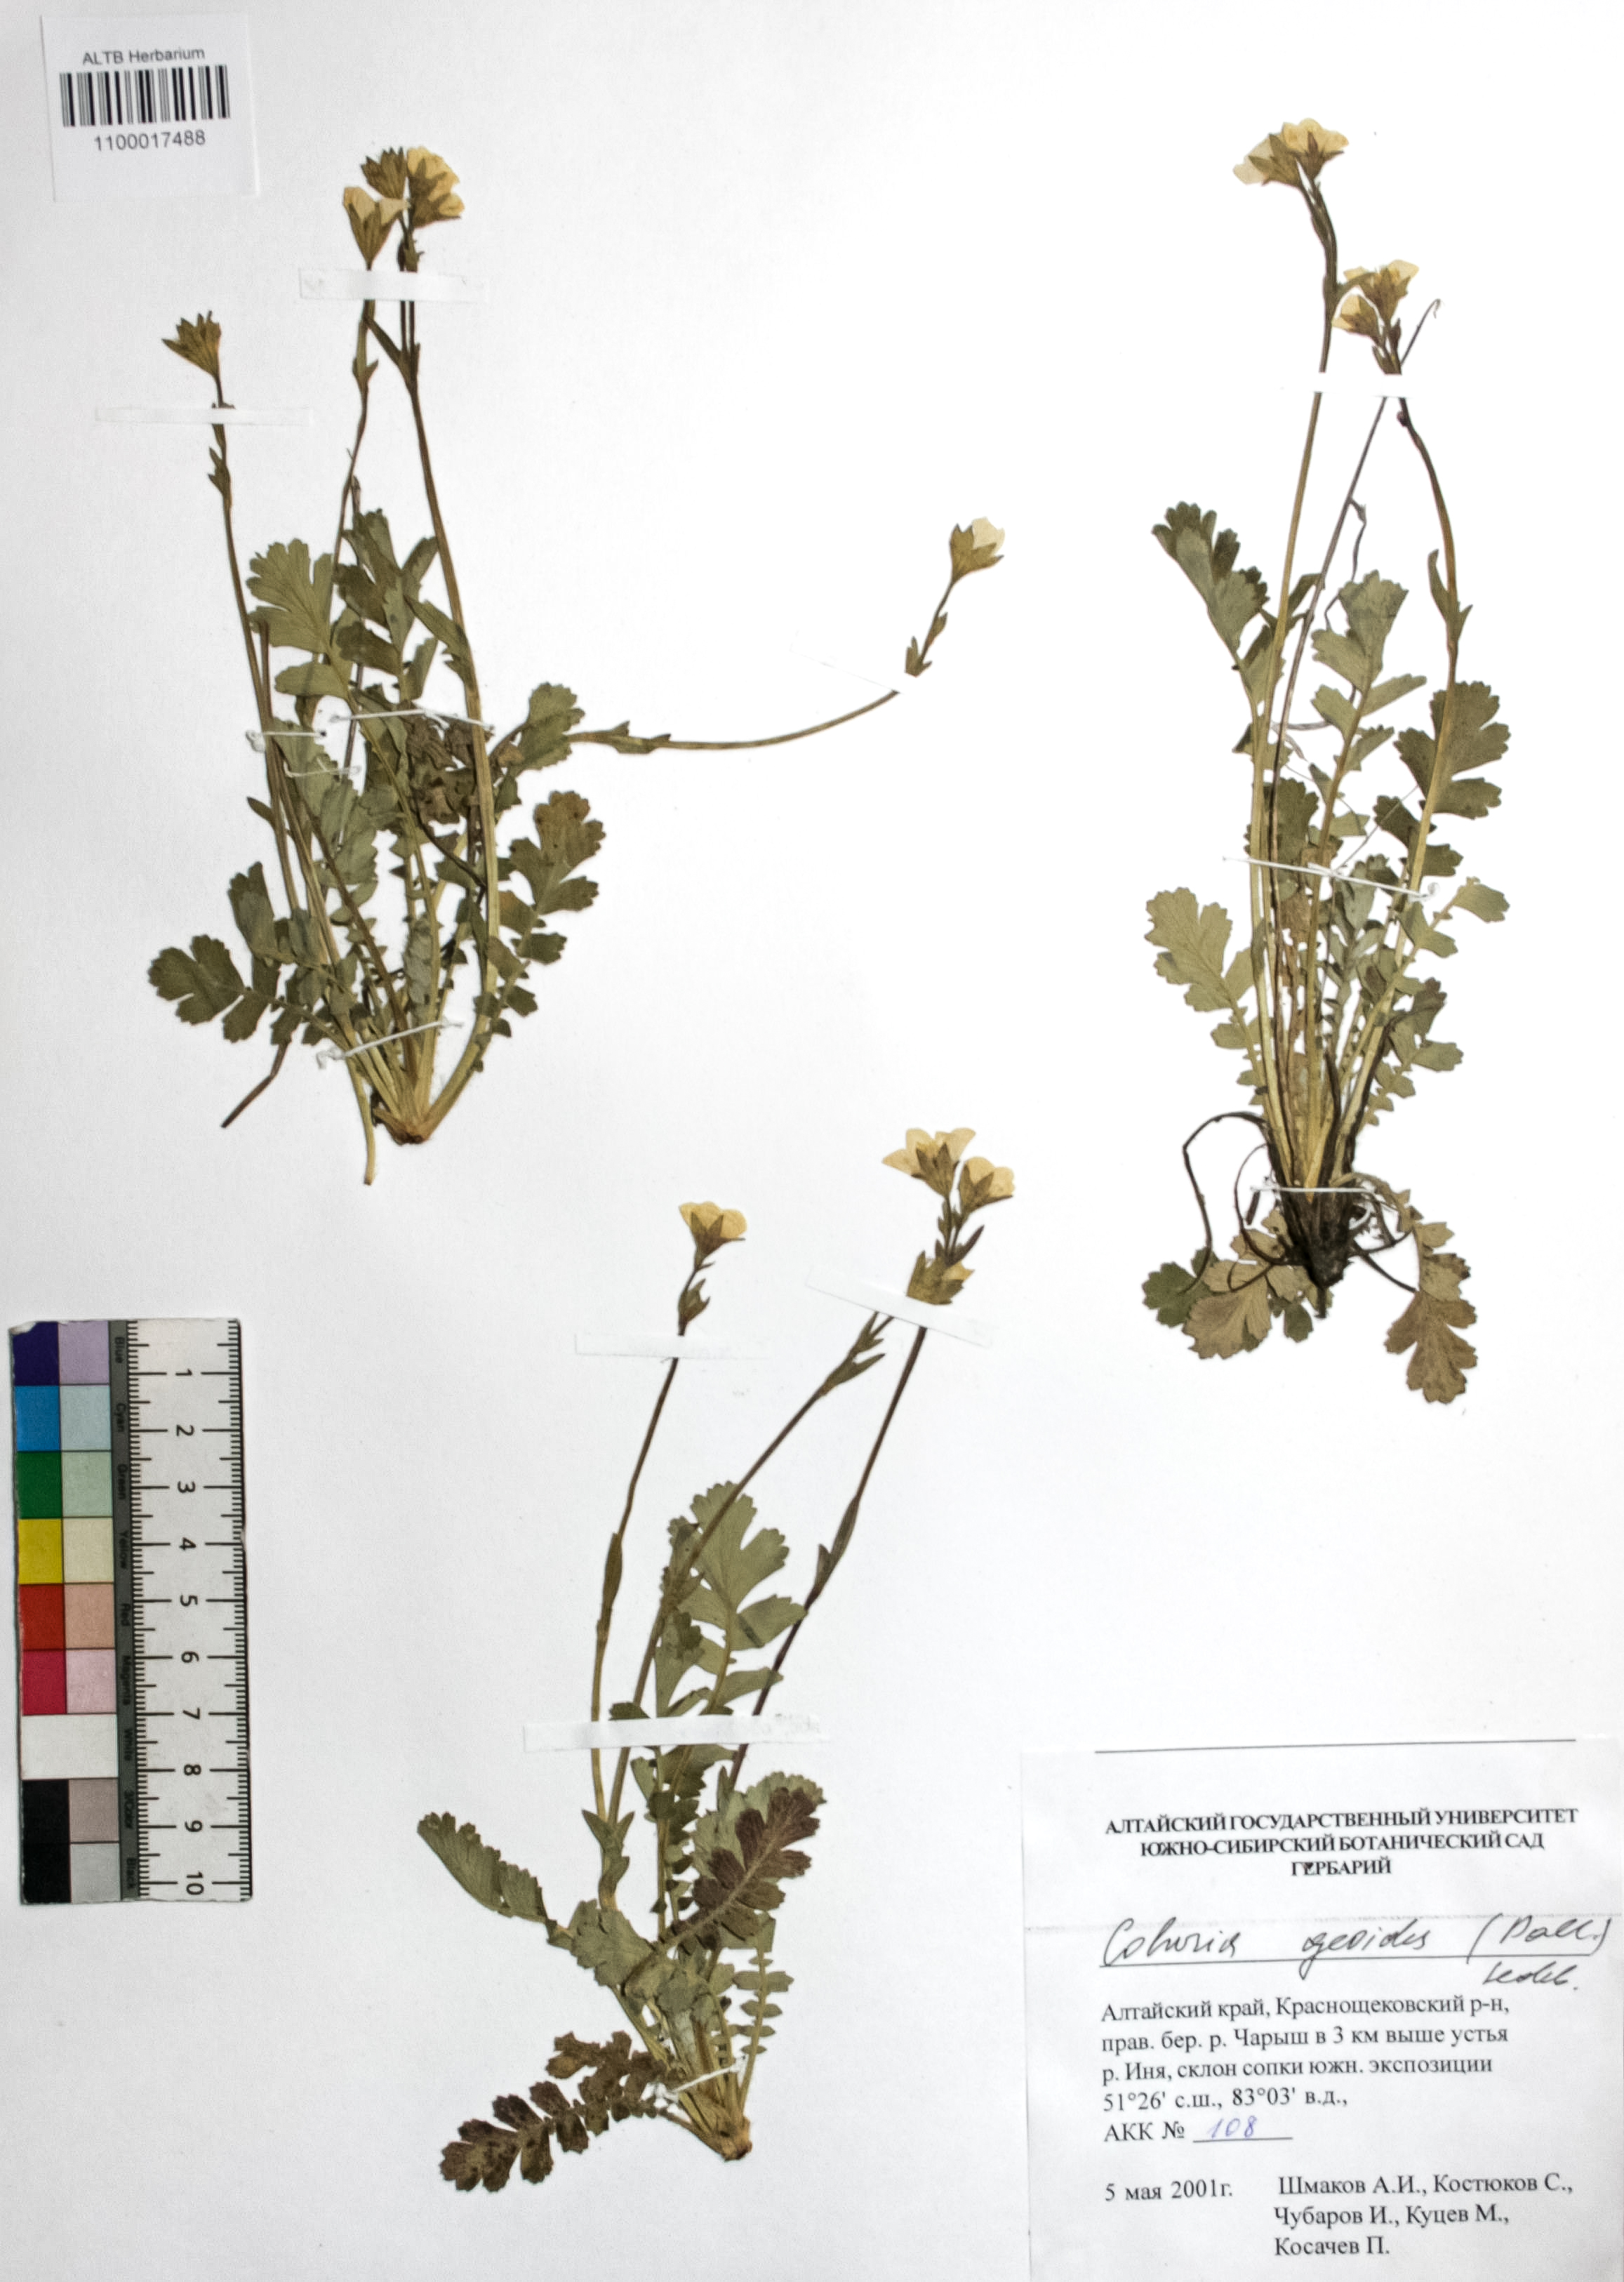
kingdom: Plantae
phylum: Tracheophyta
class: Magnoliopsida
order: Rosales
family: Rosaceae
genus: Geum
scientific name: Geum geoides
